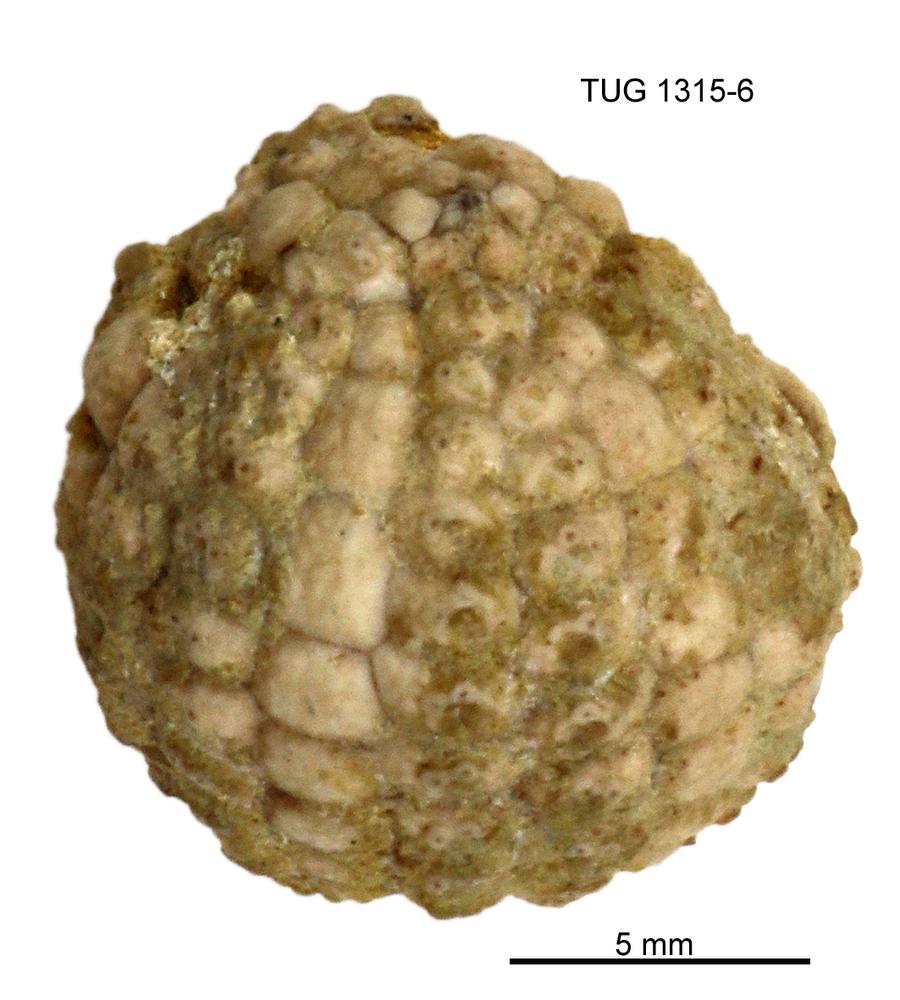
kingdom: Animalia
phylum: Echinodermata
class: Echinoidea
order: Bothriocidaroida
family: Bothriocidaridae
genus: Bothriocidaris
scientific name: Bothriocidaris
